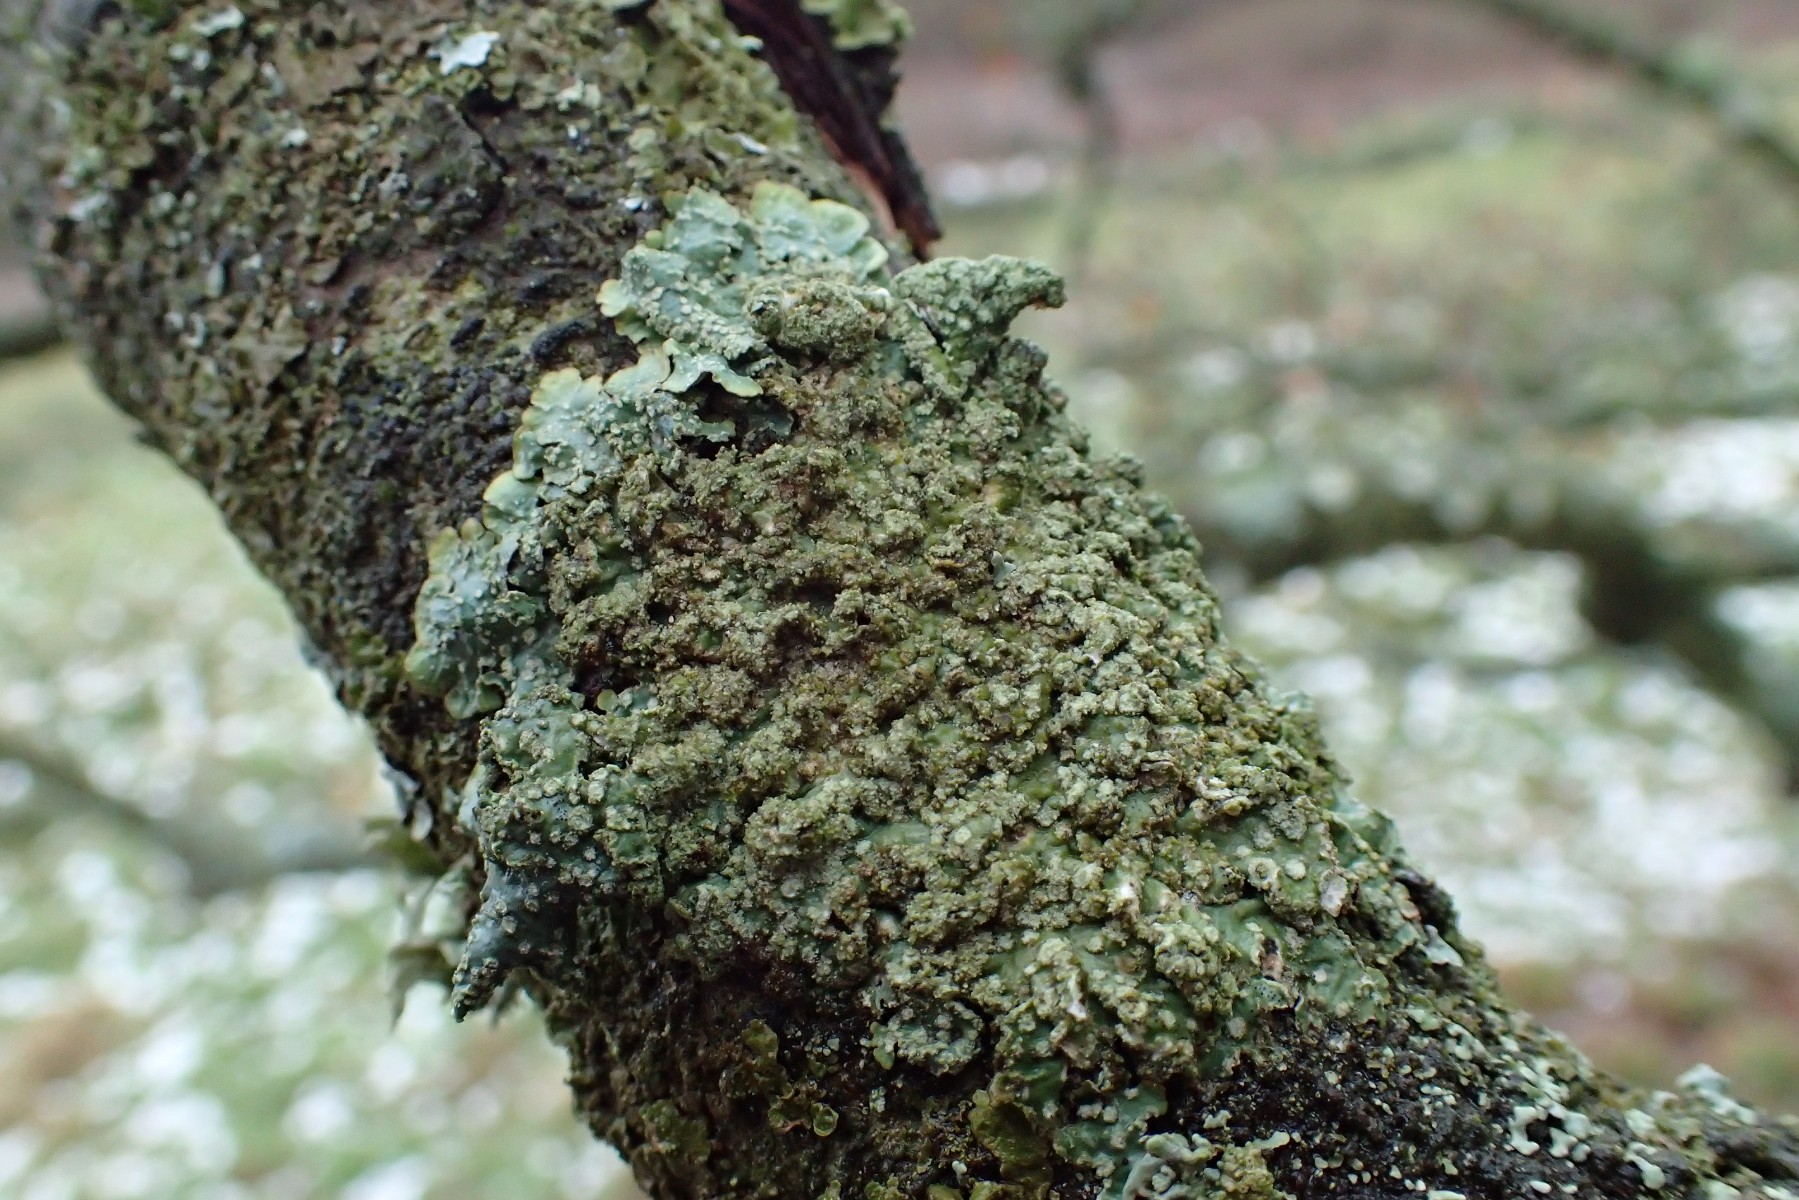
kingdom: Fungi
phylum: Ascomycota
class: Lecanoromycetes
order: Lecanorales
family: Parmeliaceae
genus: Punctelia
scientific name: Punctelia subrudecta
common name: punkt-skållav
